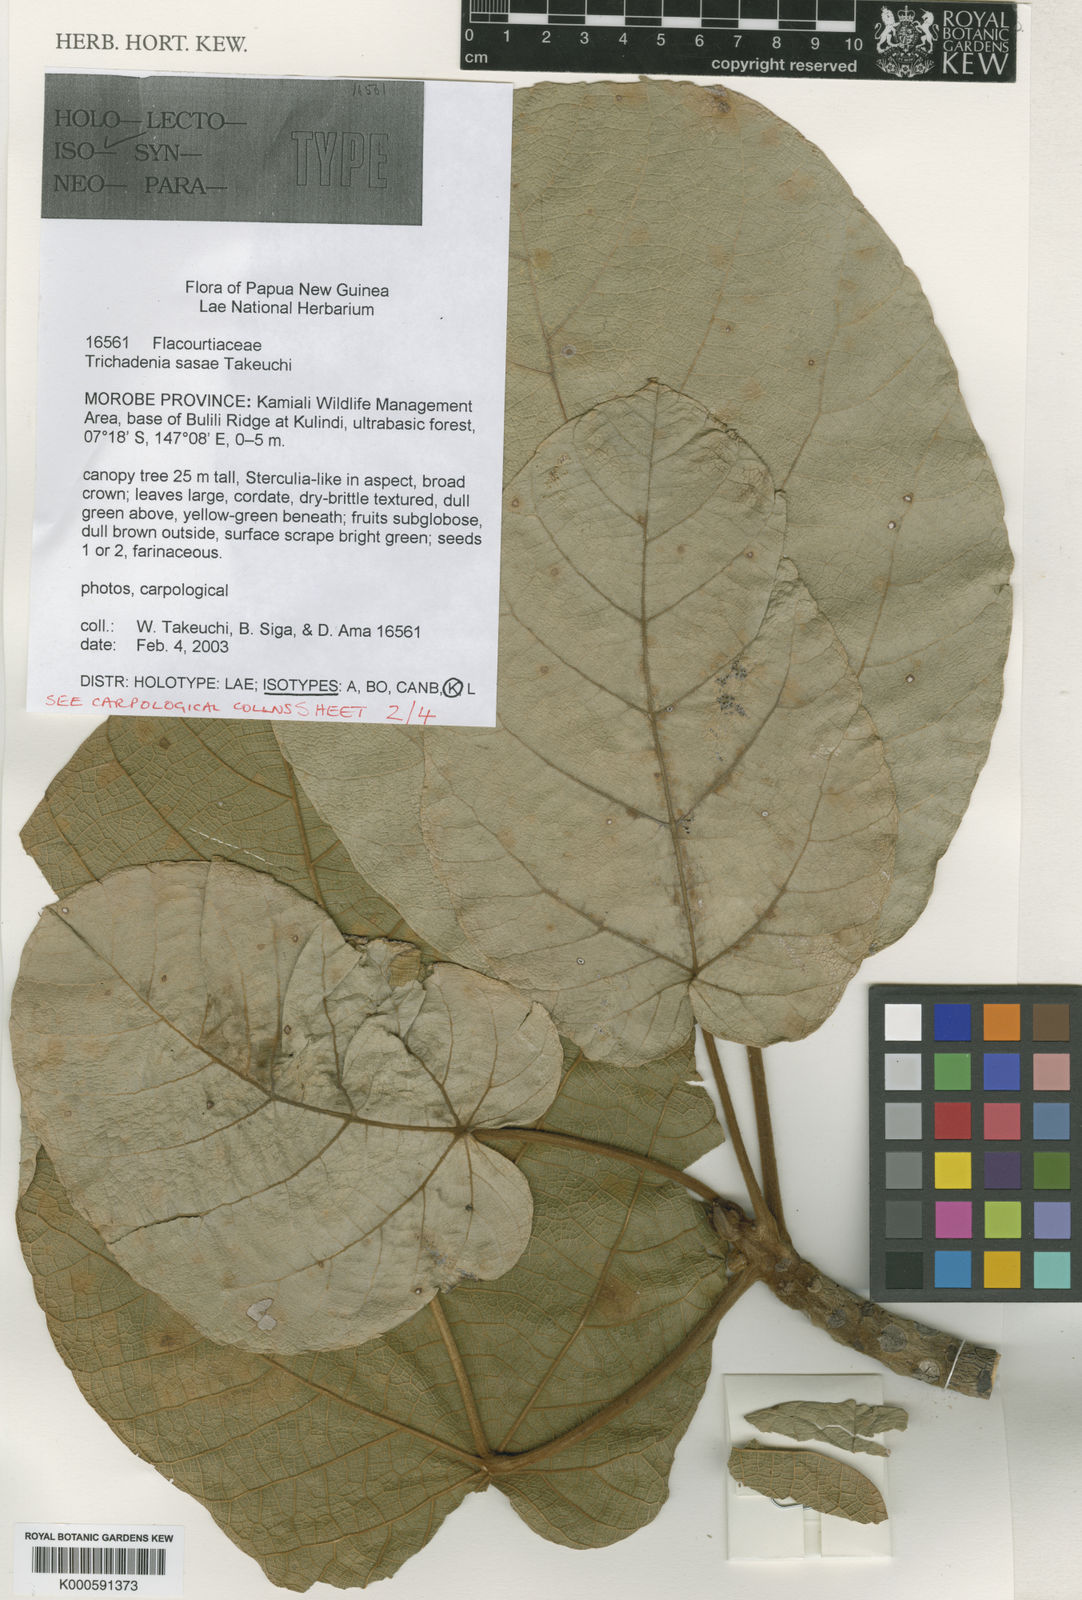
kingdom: Plantae
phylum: Tracheophyta
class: Magnoliopsida
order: Malpighiales
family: Achariaceae
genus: Trichadenia
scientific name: Trichadenia sasae
